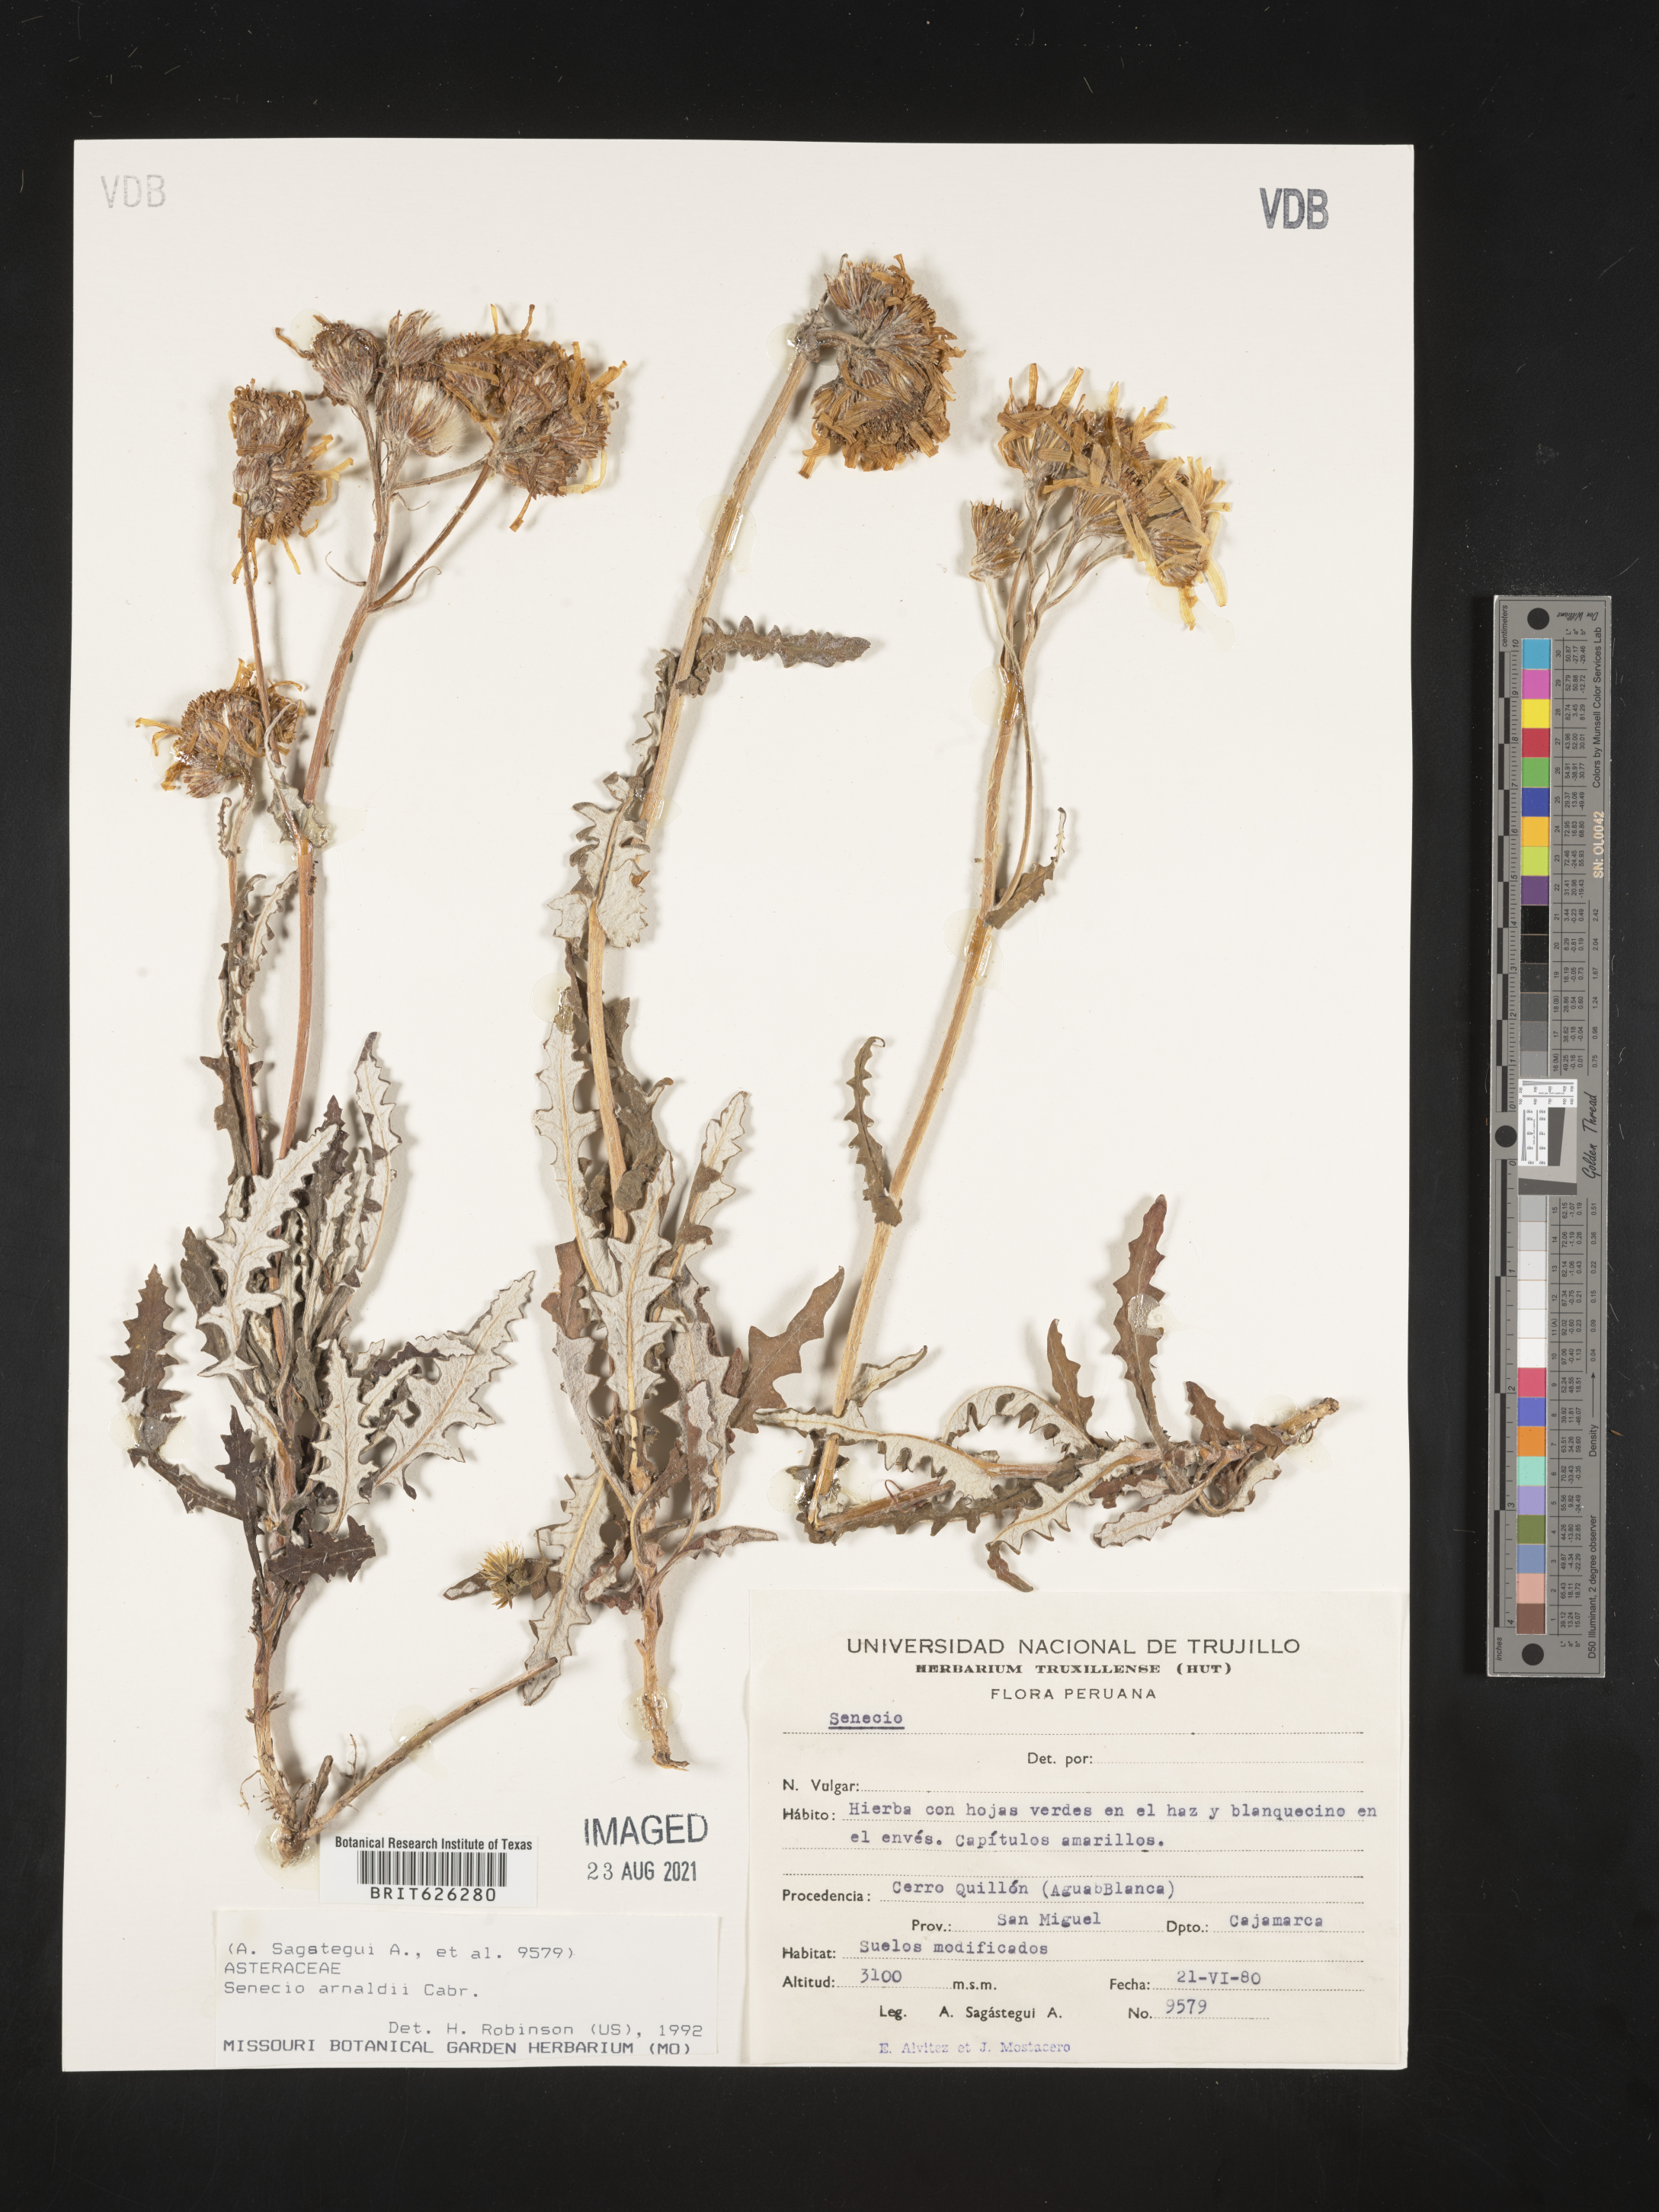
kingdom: Plantae
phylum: Tracheophyta
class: Magnoliopsida
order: Asterales
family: Asteraceae
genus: Lomanthus
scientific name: Lomanthus arnaldii
